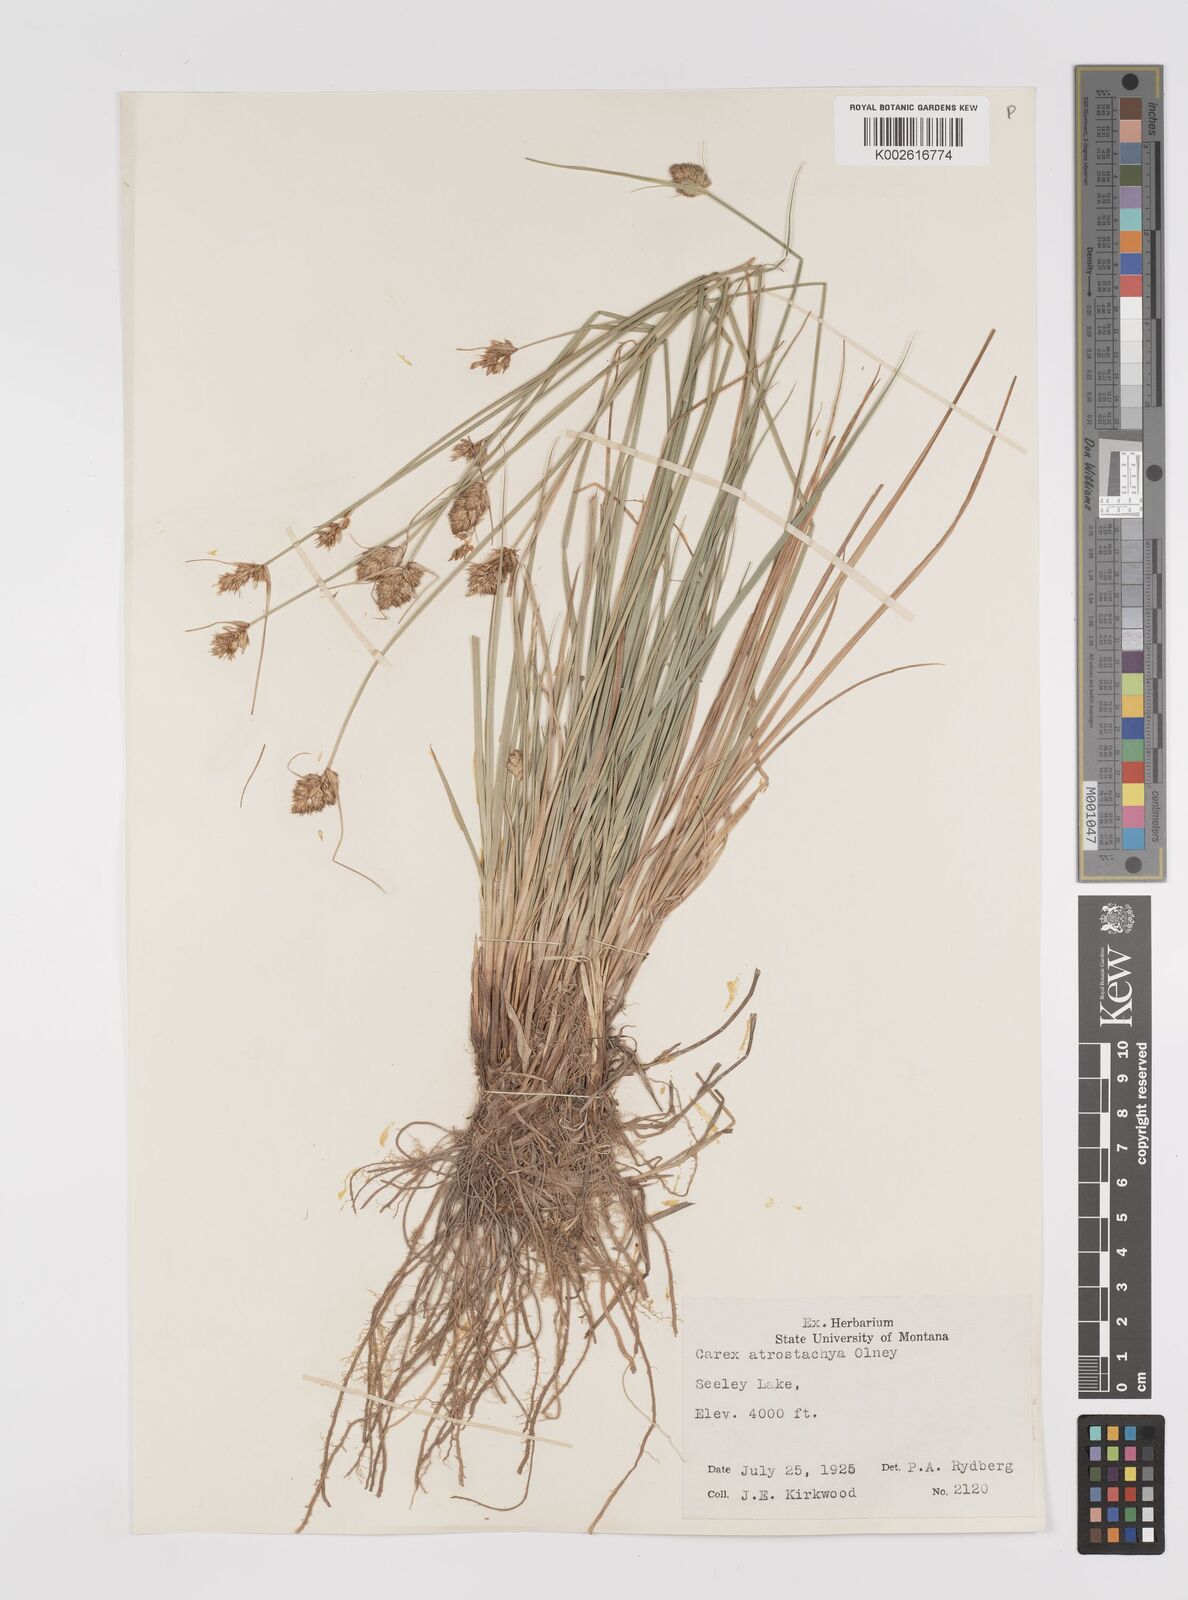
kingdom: Plantae
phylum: Tracheophyta
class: Liliopsida
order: Poales
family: Cyperaceae
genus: Carex
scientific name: Carex athrostachya
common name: Slenderbeak sedge
